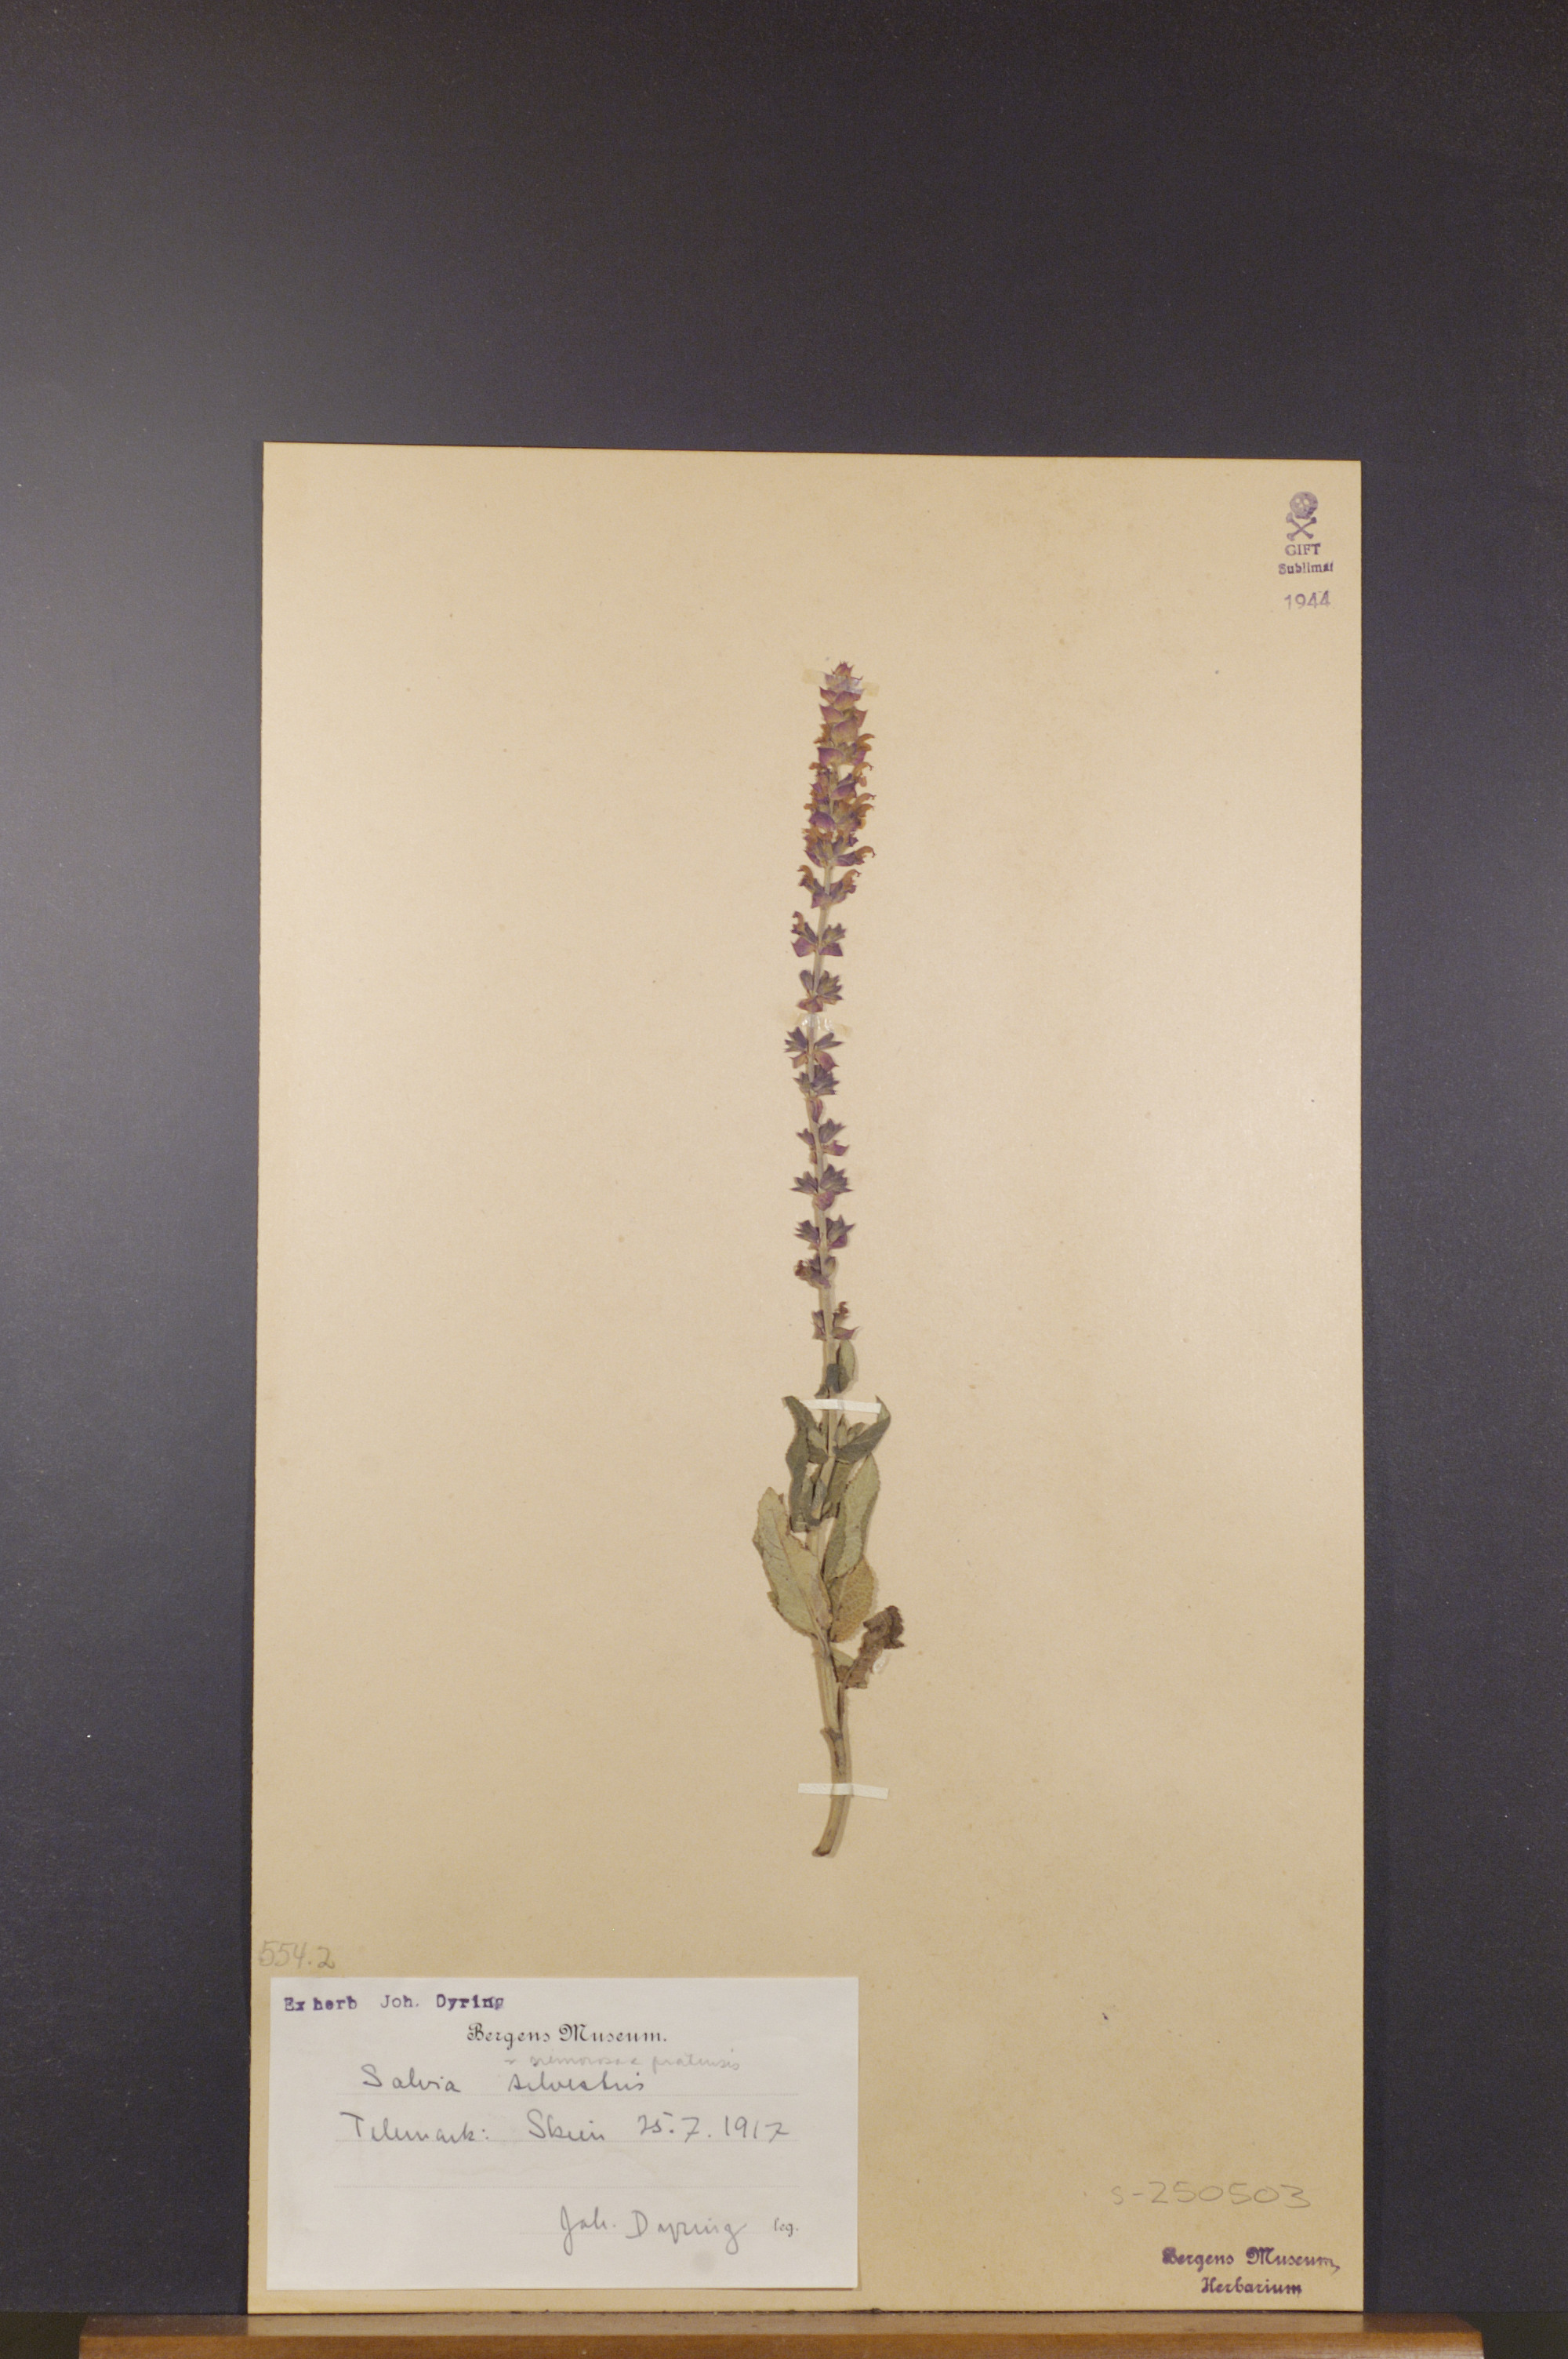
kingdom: Plantae
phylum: Tracheophyta
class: Magnoliopsida
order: Lamiales
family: Lamiaceae
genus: Salvia
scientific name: Salvia nemorosa
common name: Balkan clary
